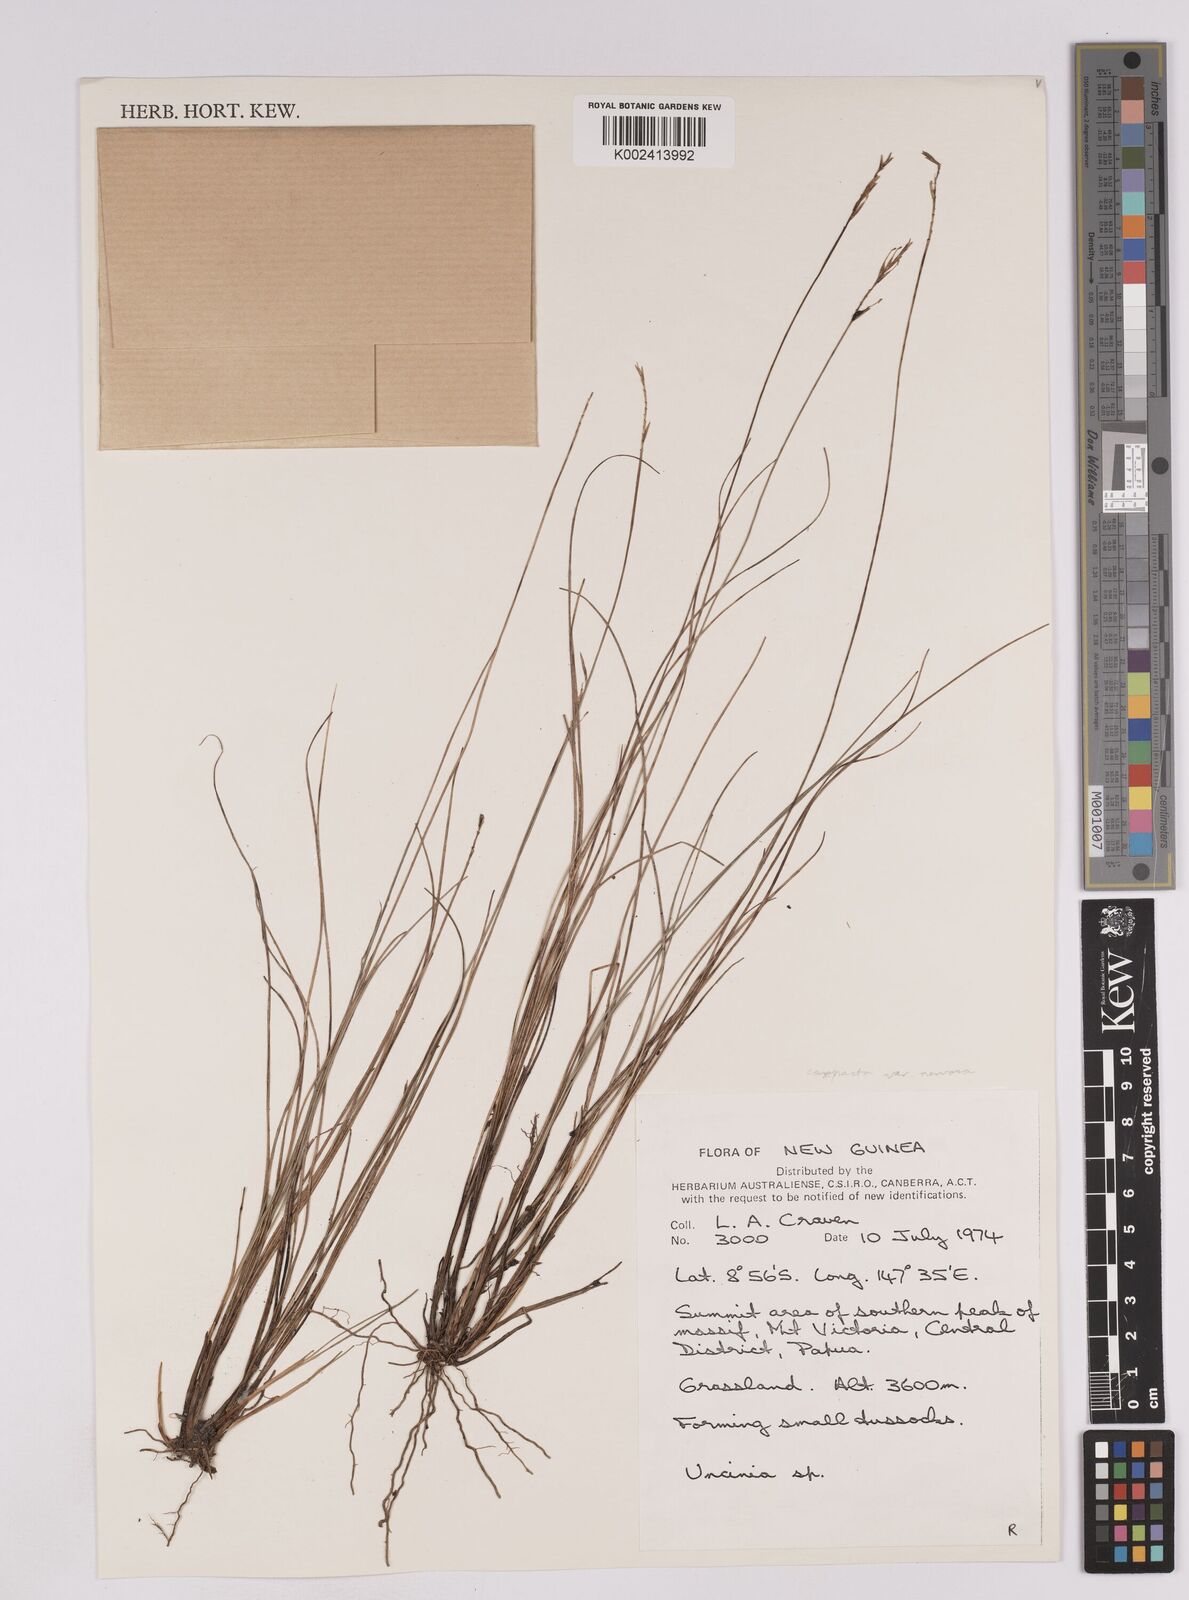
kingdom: Plantae
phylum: Tracheophyta
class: Liliopsida
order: Poales
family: Cyperaceae
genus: Carex
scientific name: Carex cheesemanniana
